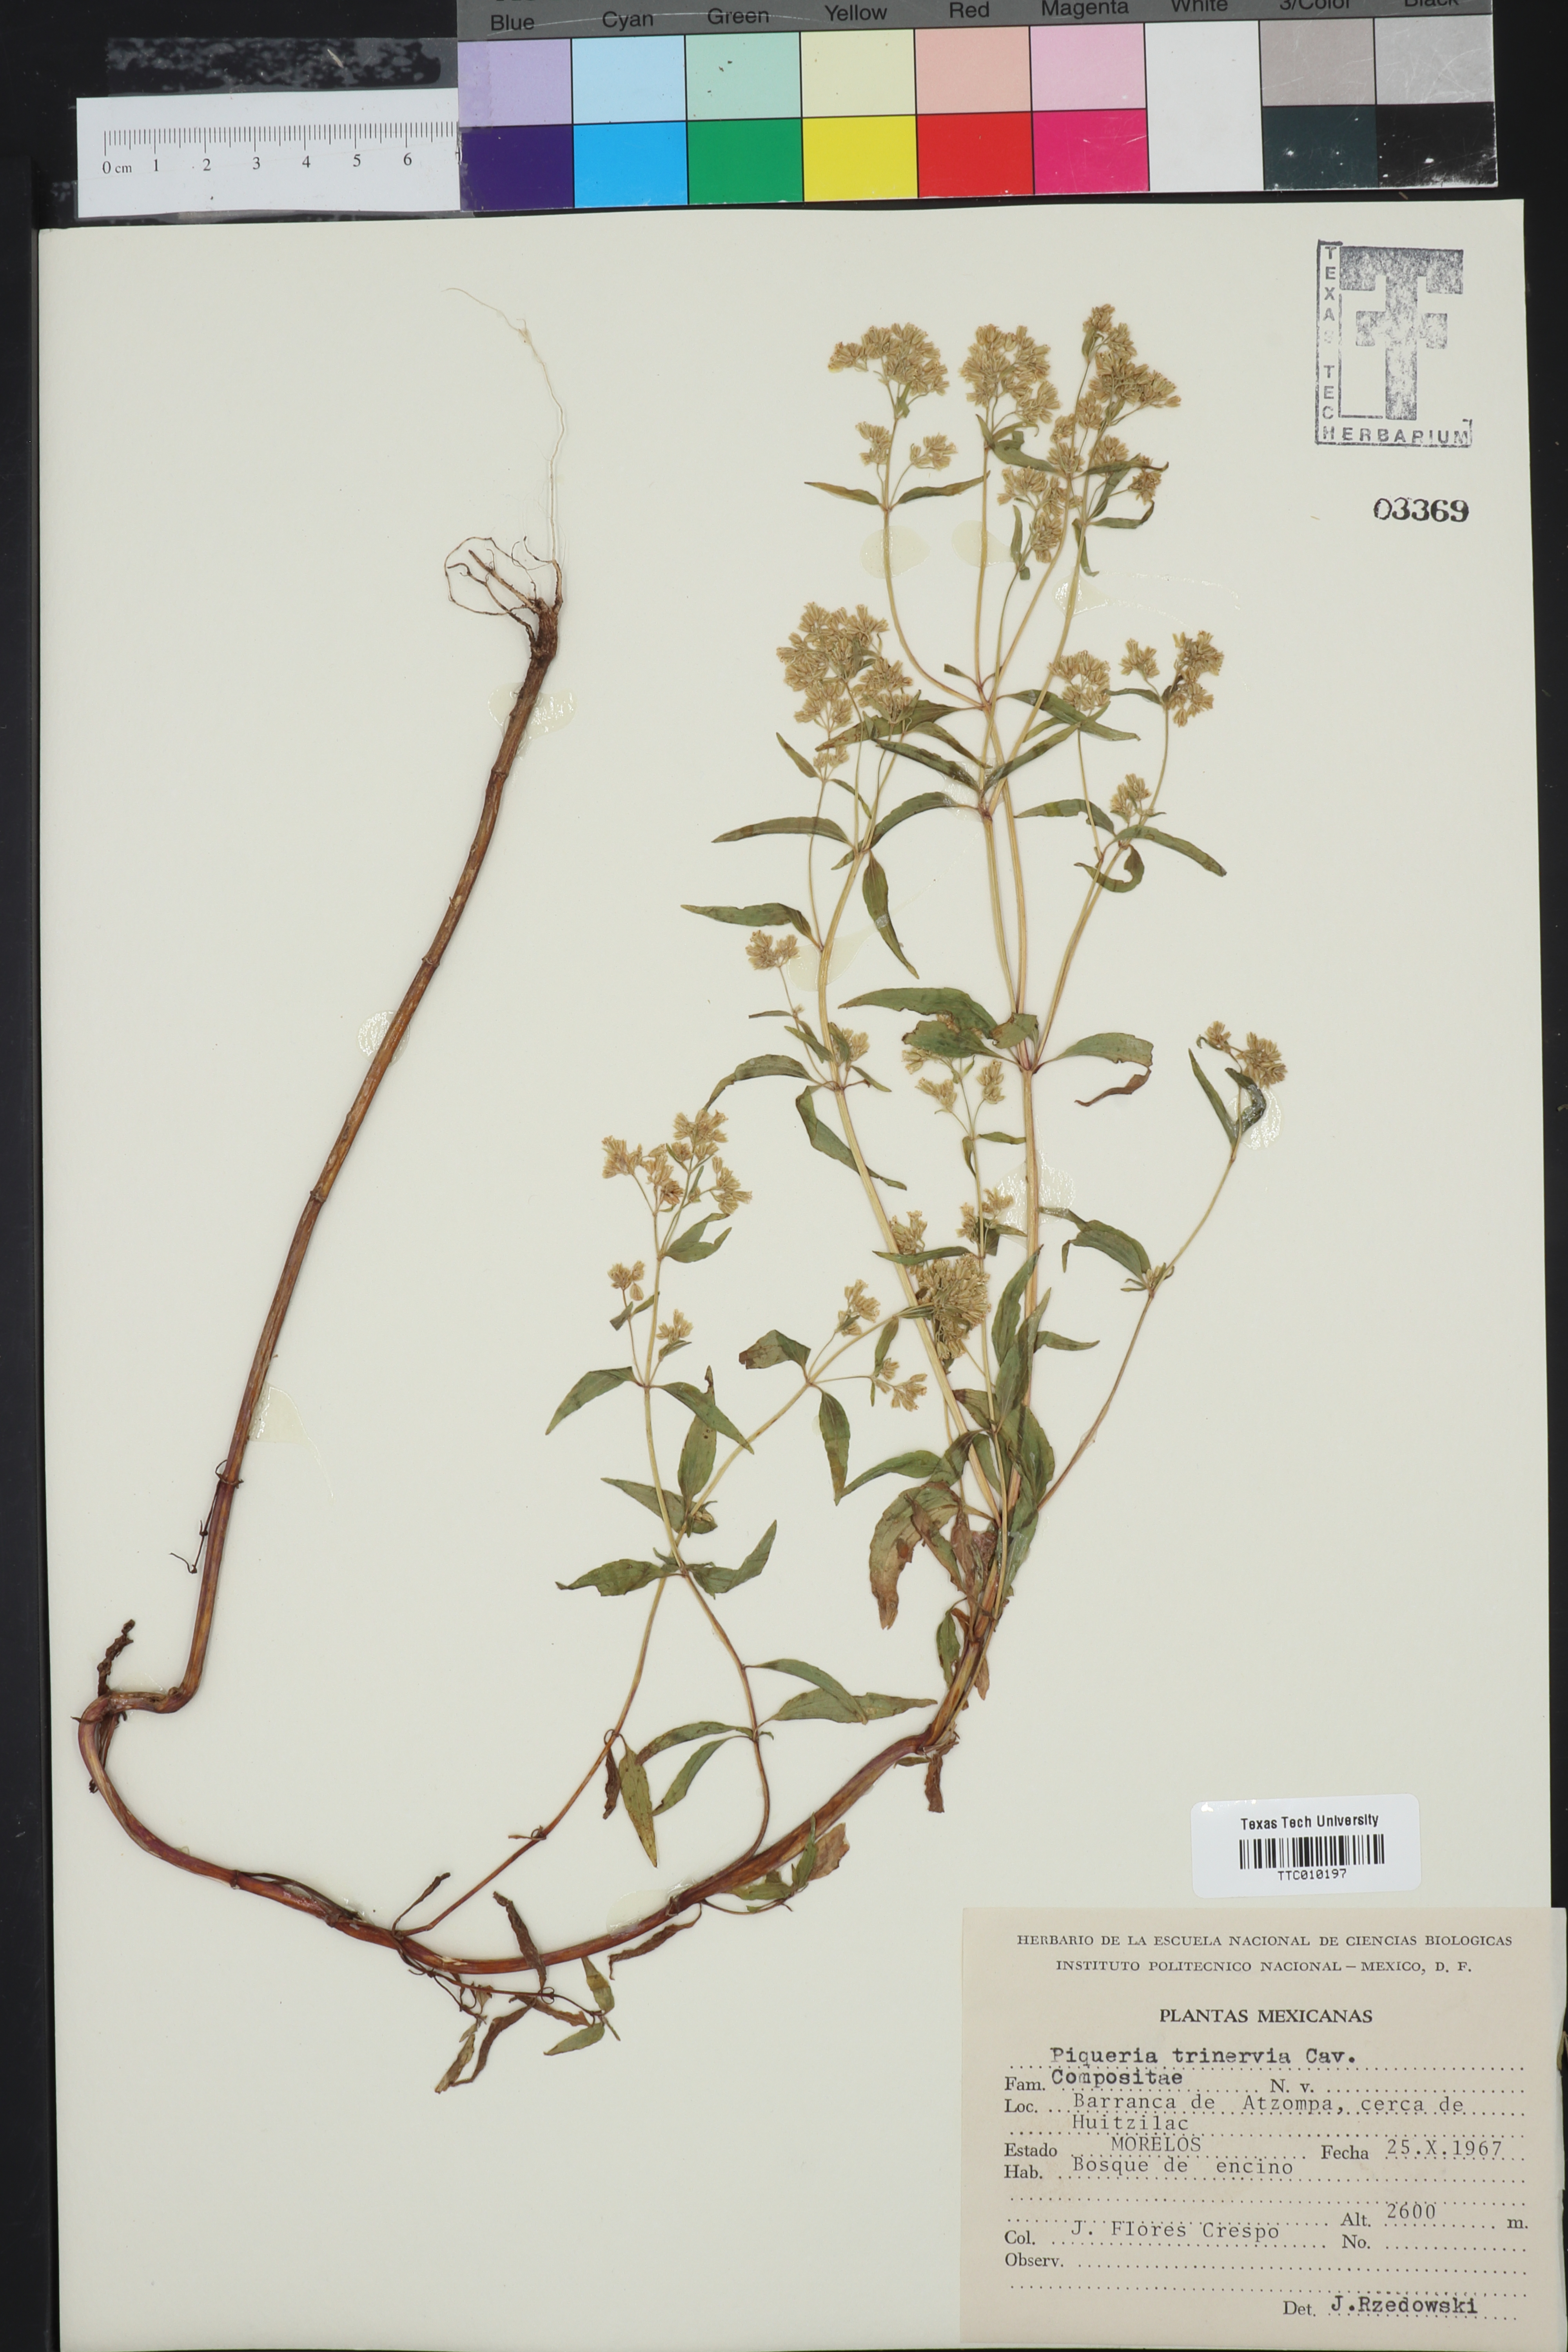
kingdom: Plantae
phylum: Tracheophyta
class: Magnoliopsida
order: Asterales
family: Asteraceae
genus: Piqueria
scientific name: Piqueria trinervia
